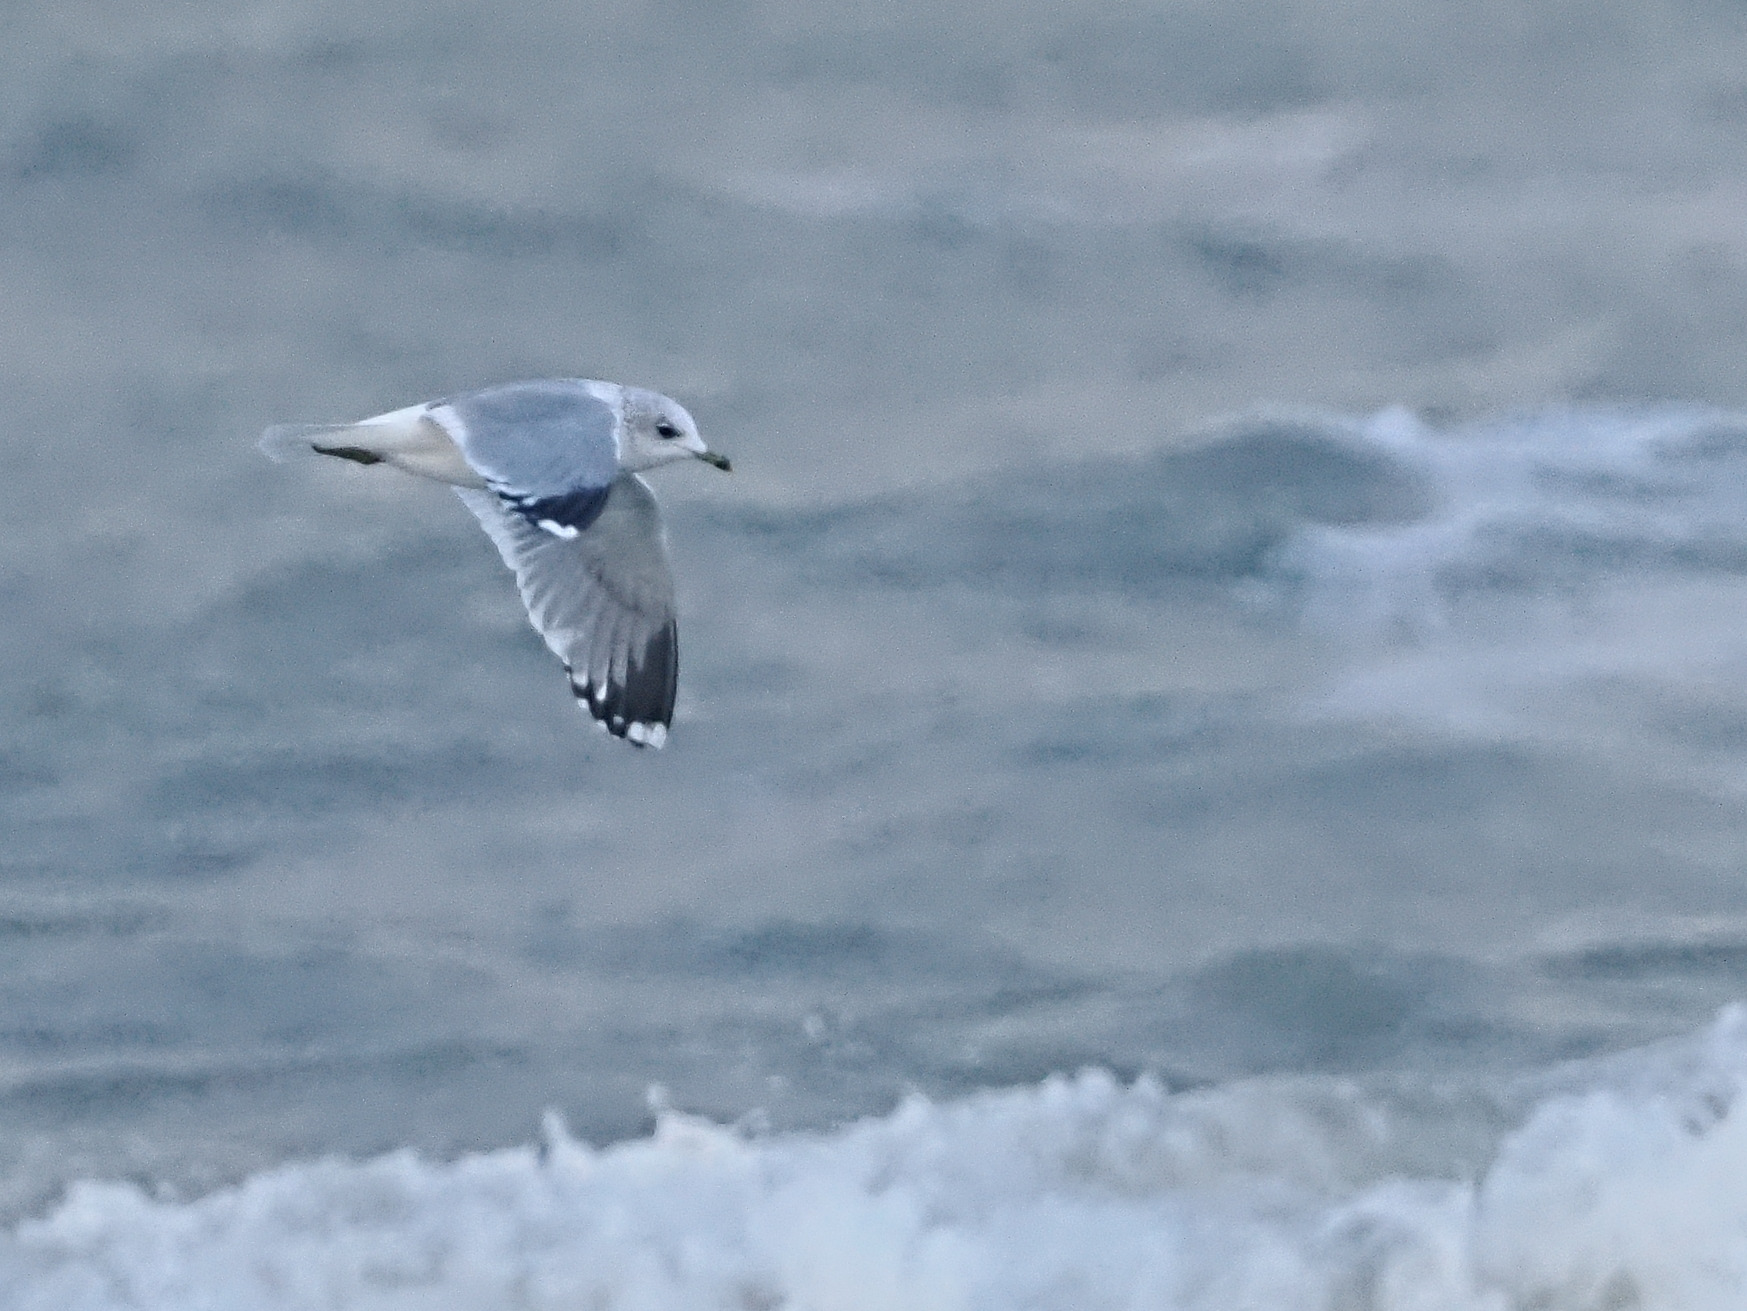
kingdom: Animalia
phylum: Chordata
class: Aves
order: Charadriiformes
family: Laridae
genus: Larus
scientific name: Larus canus
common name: Stormmåge
